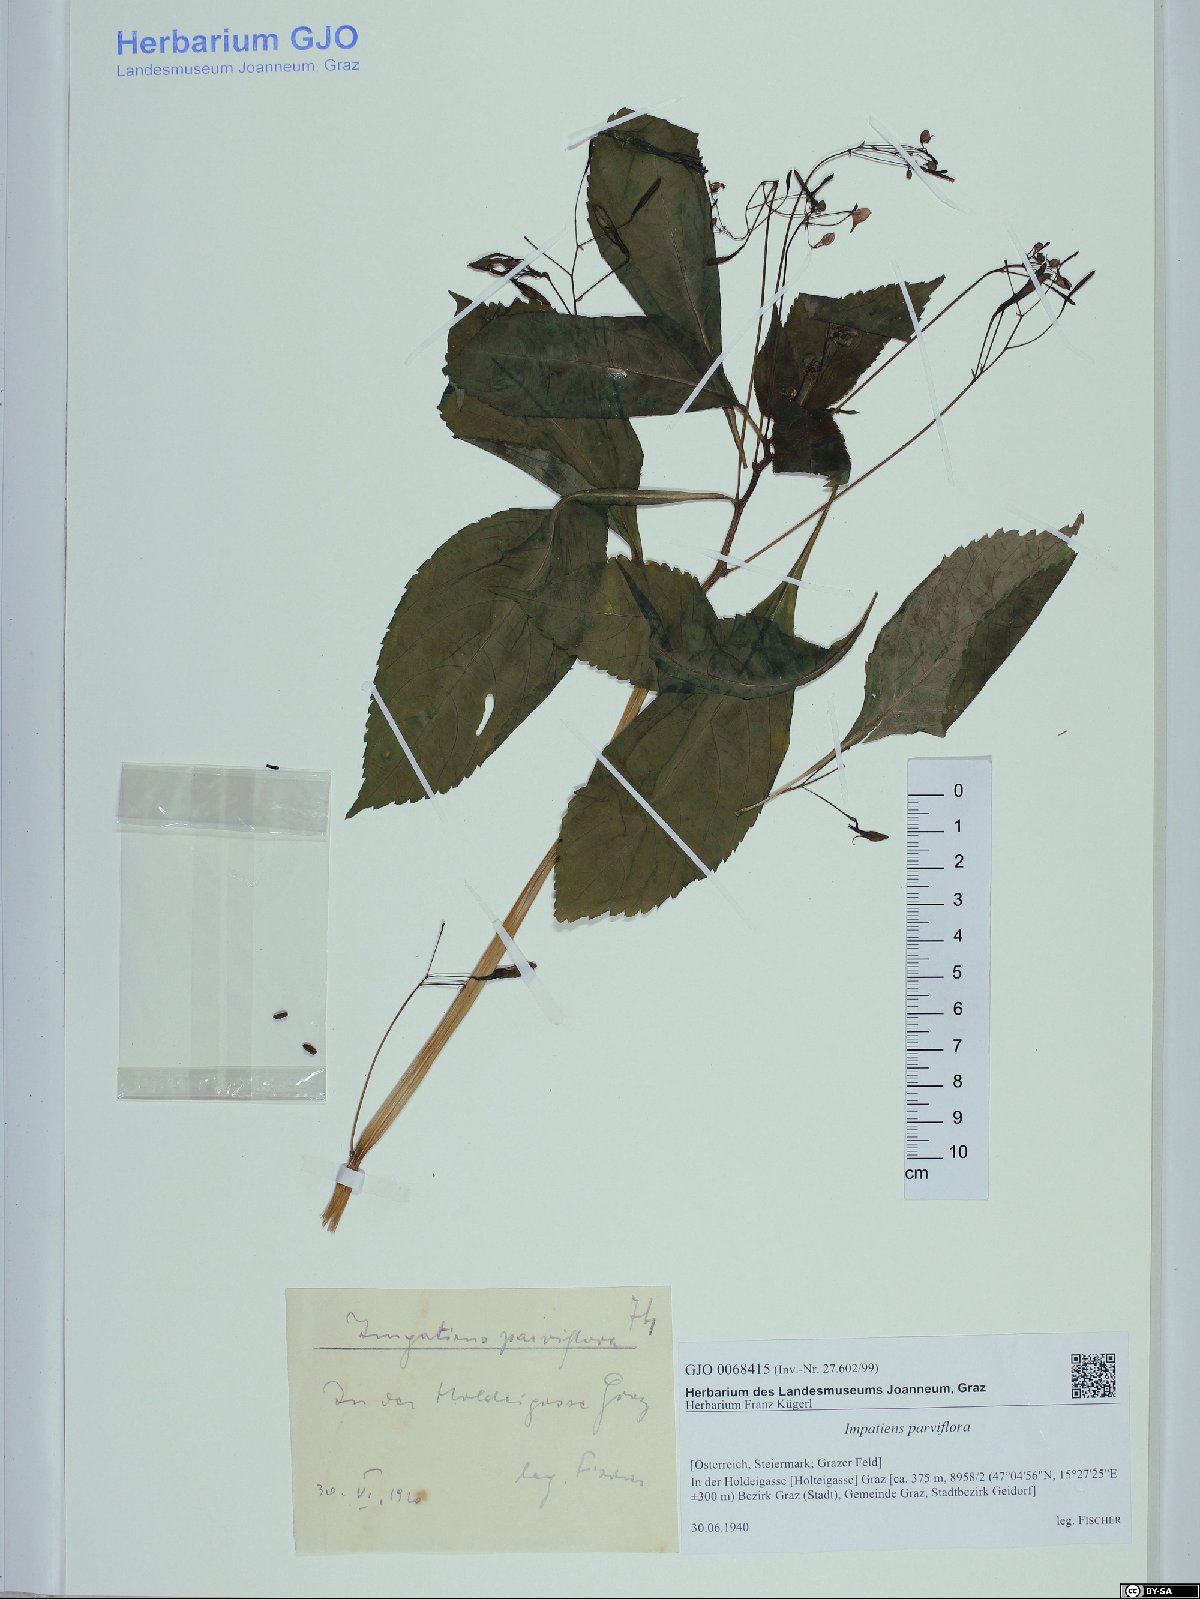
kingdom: Plantae
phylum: Tracheophyta
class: Magnoliopsida
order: Ericales
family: Balsaminaceae
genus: Impatiens
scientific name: Impatiens parviflora
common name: Small balsam
